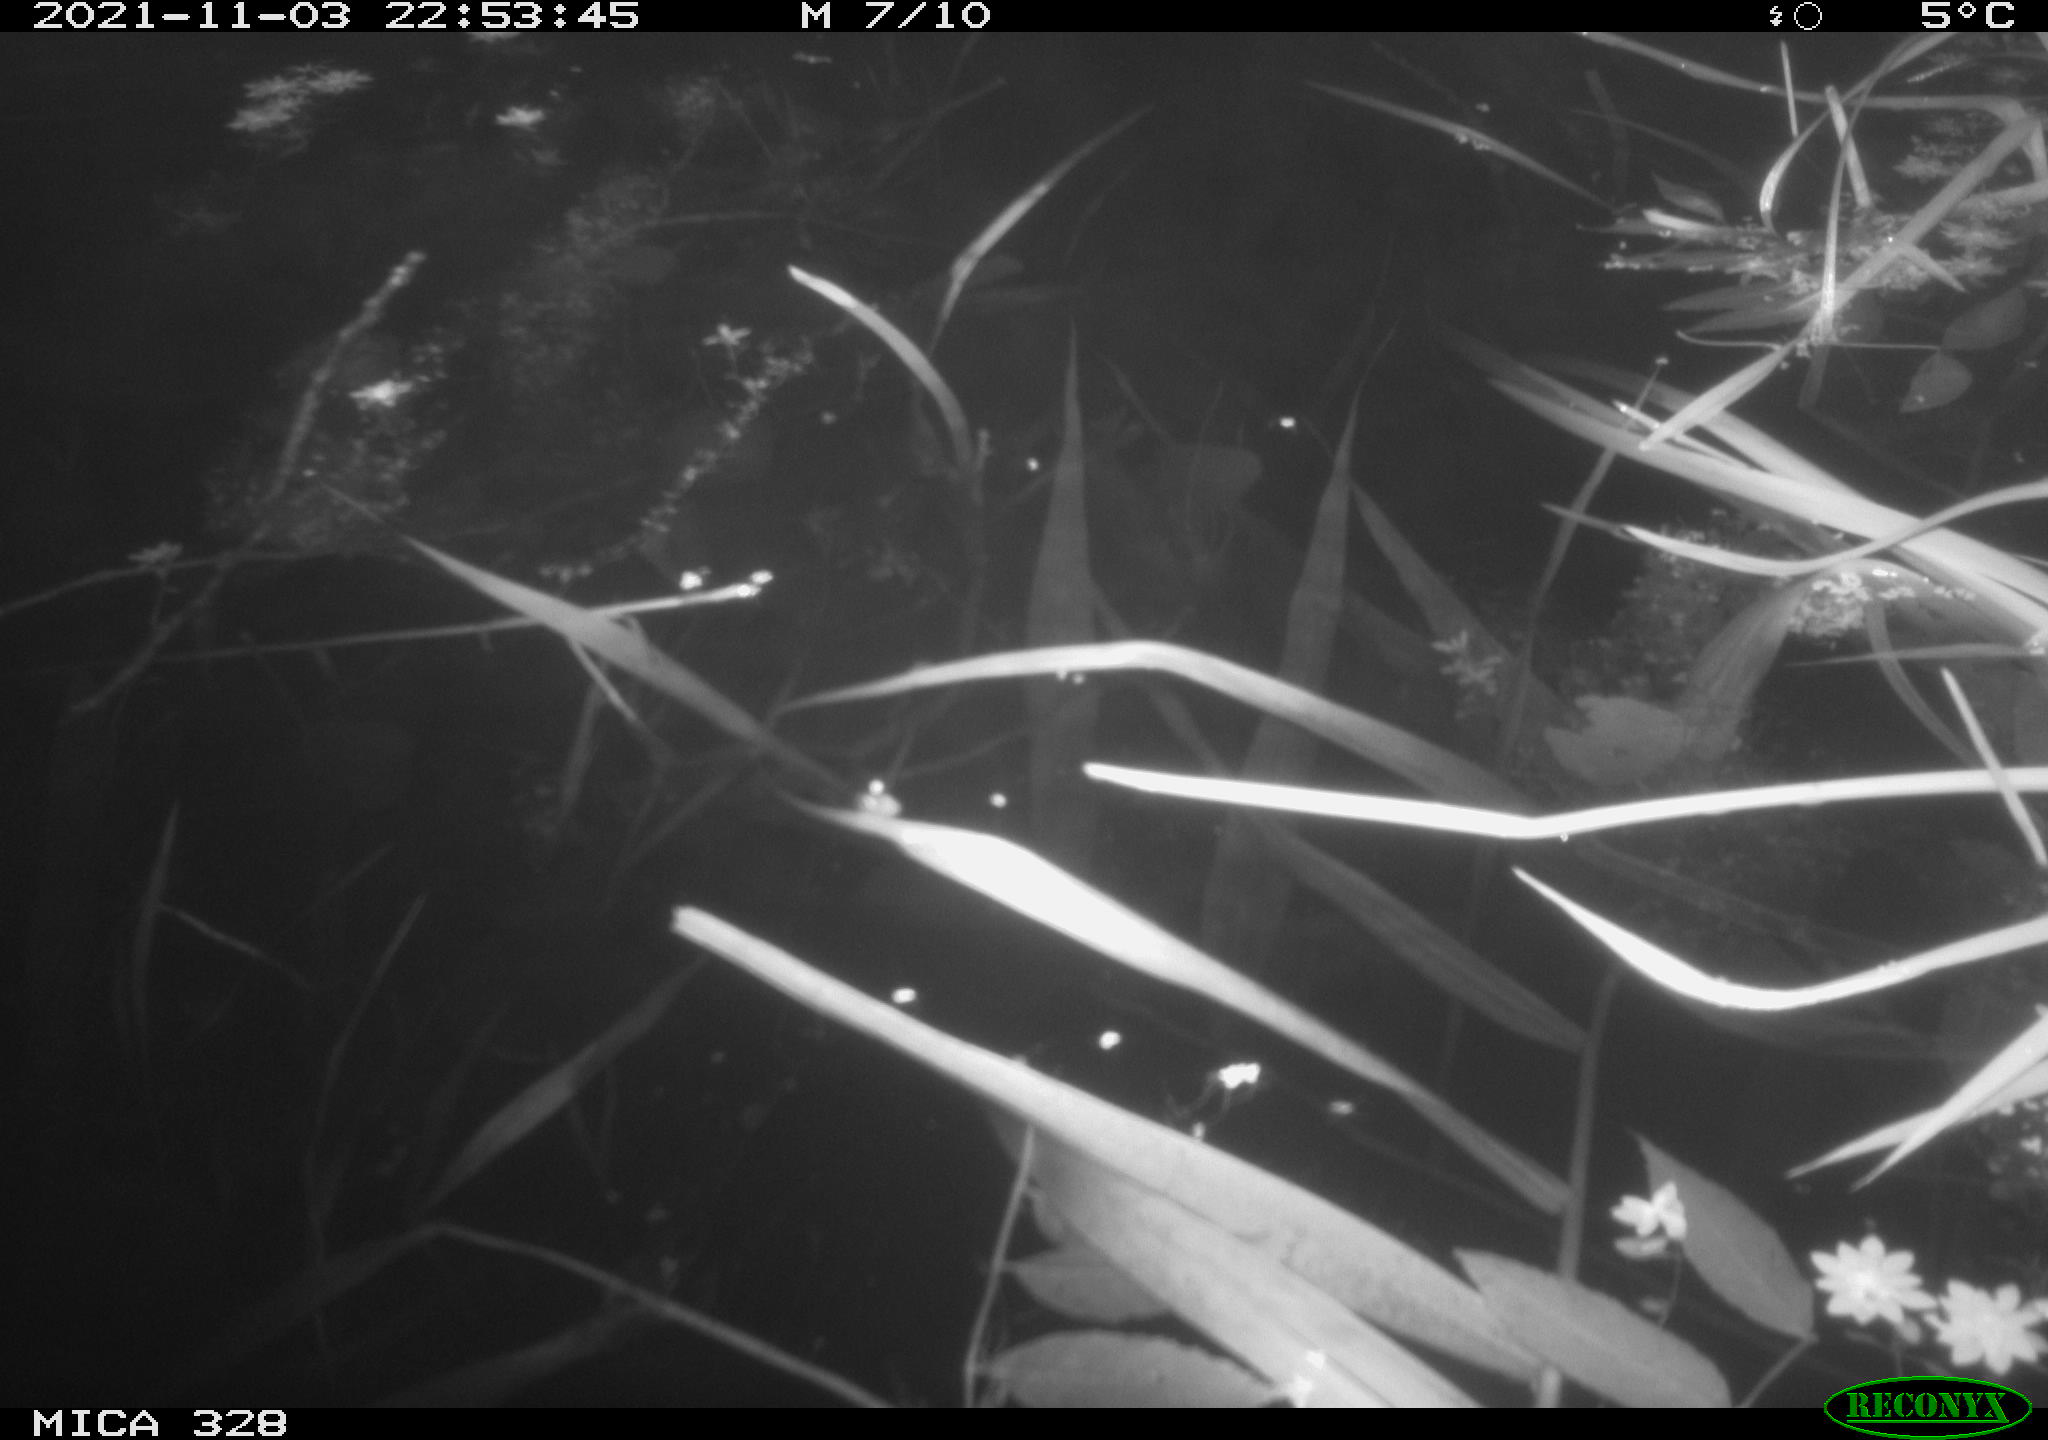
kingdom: Animalia
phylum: Chordata
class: Mammalia
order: Rodentia
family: Cricetidae
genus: Ondatra
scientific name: Ondatra zibethicus
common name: Muskrat
